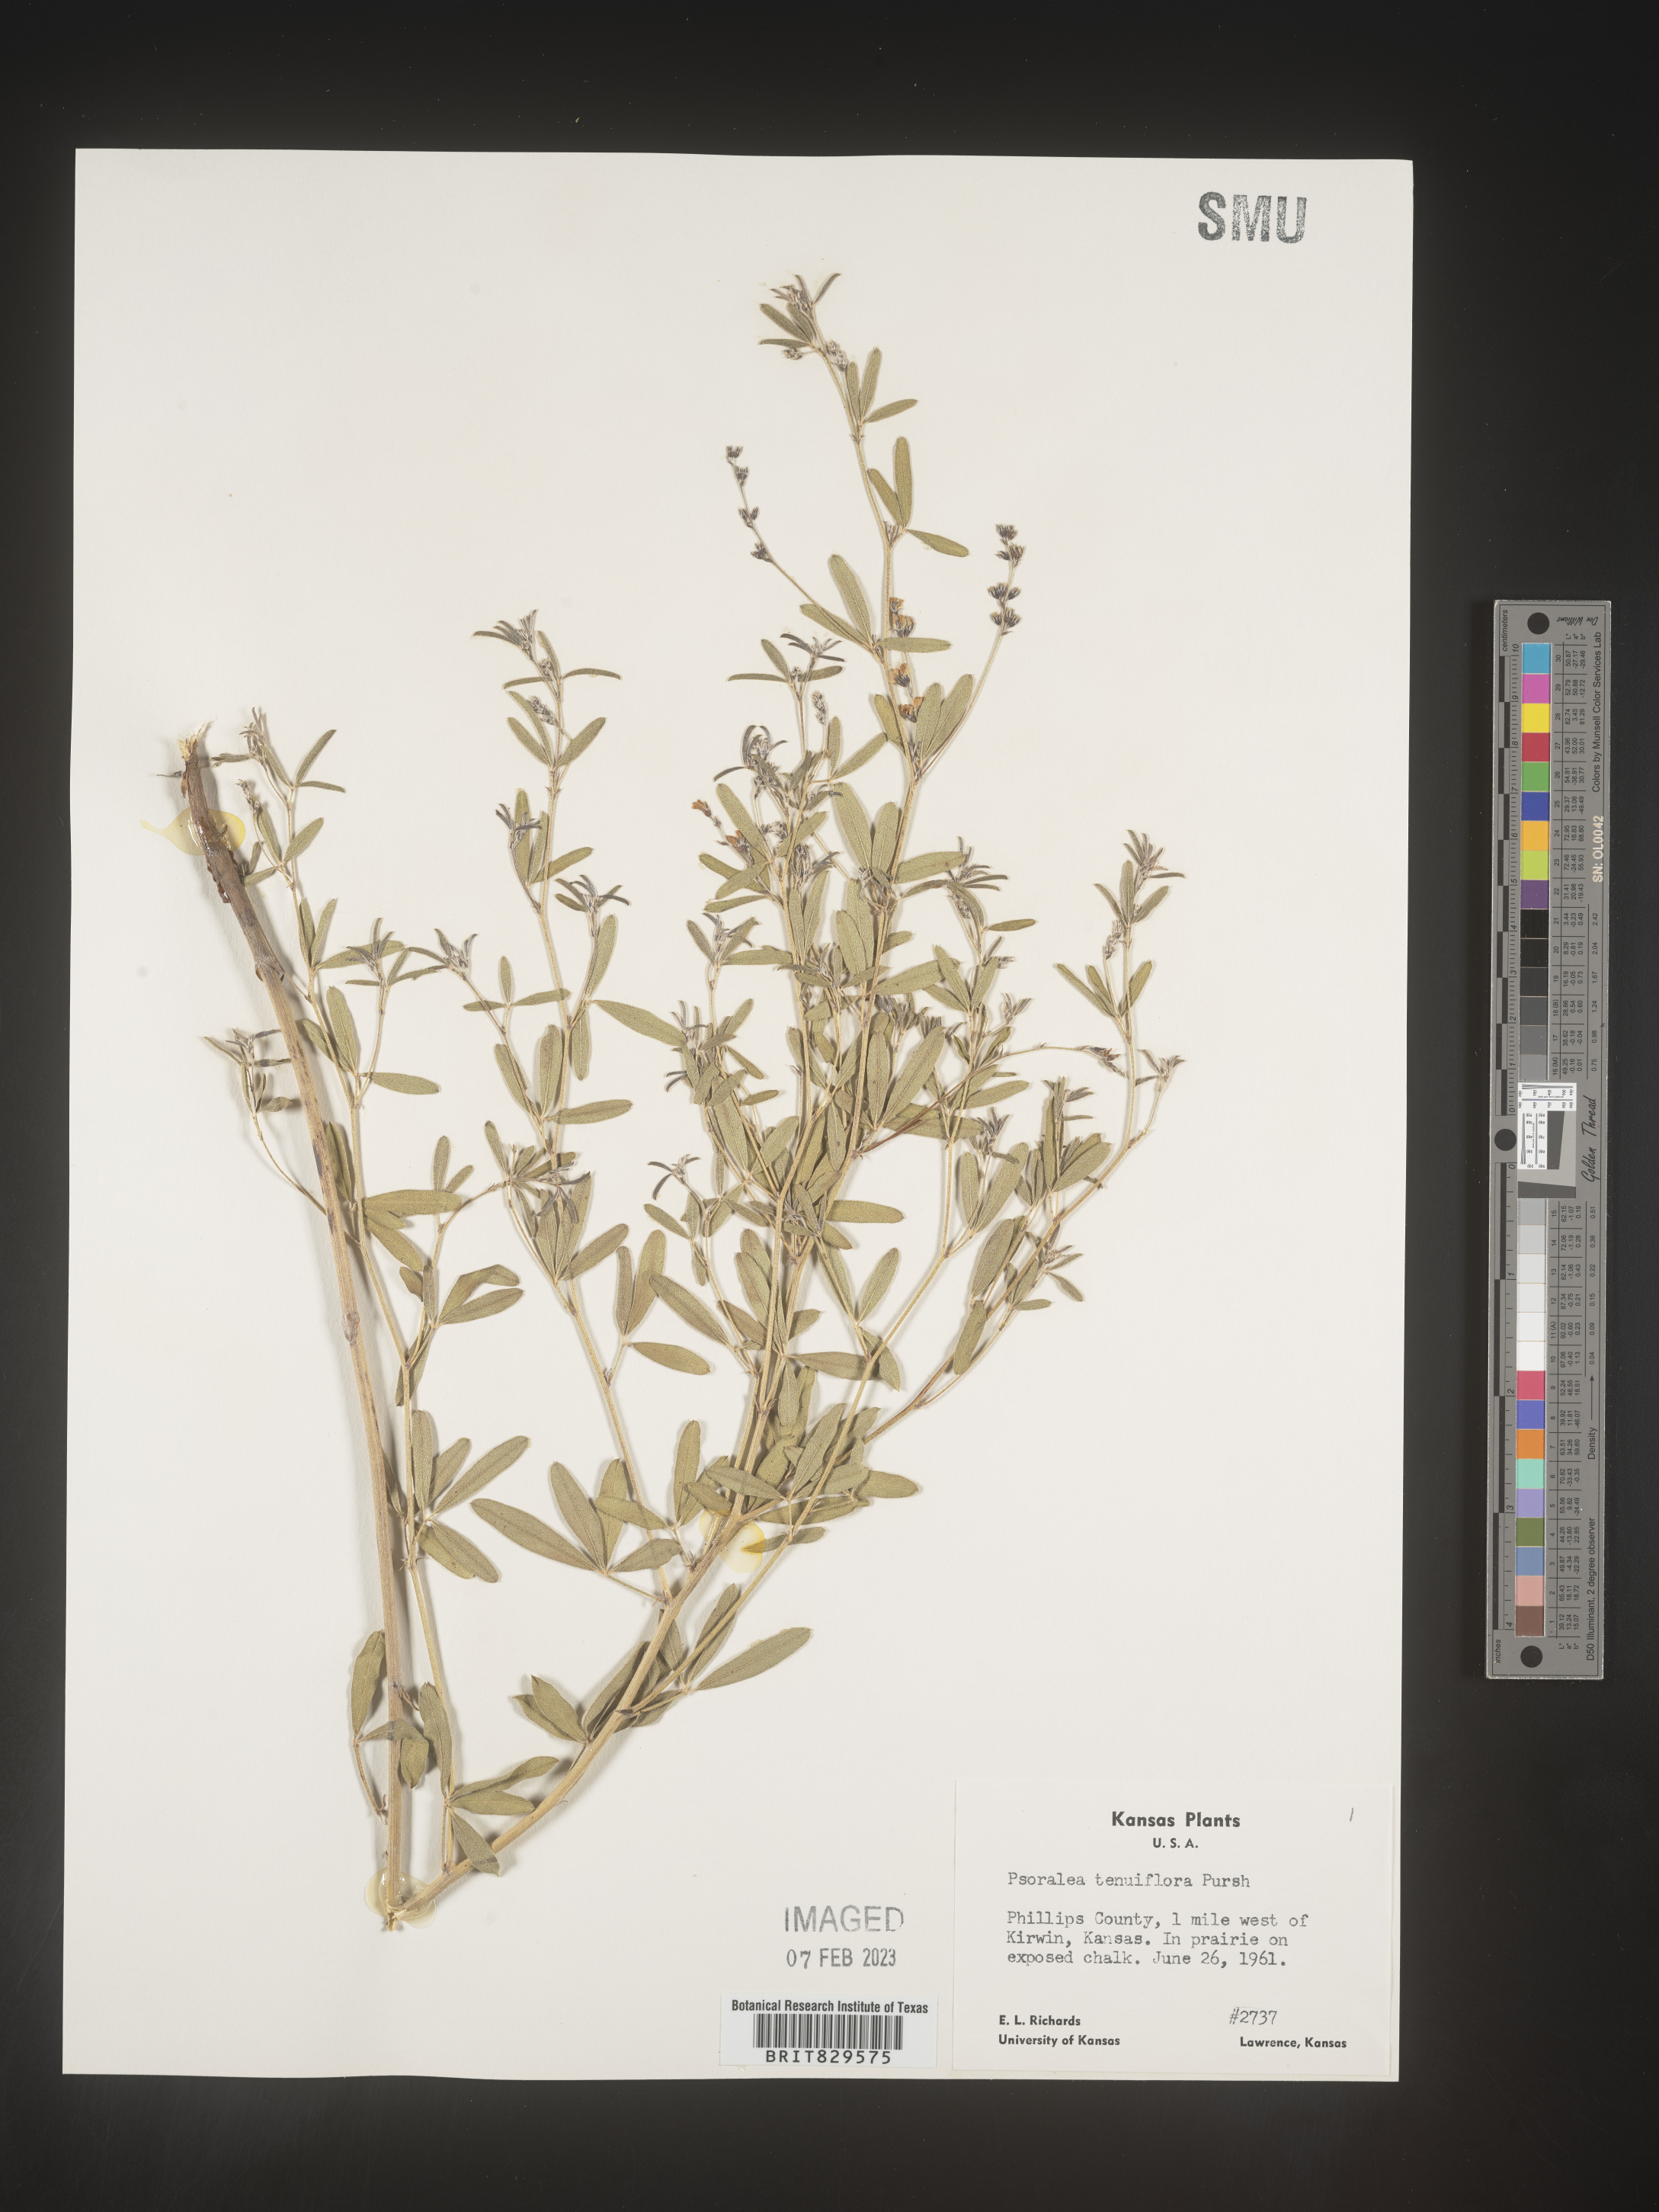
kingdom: Plantae
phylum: Tracheophyta
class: Magnoliopsida
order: Fabales
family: Fabaceae
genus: Pediomelum
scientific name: Pediomelum tenuiflorum
